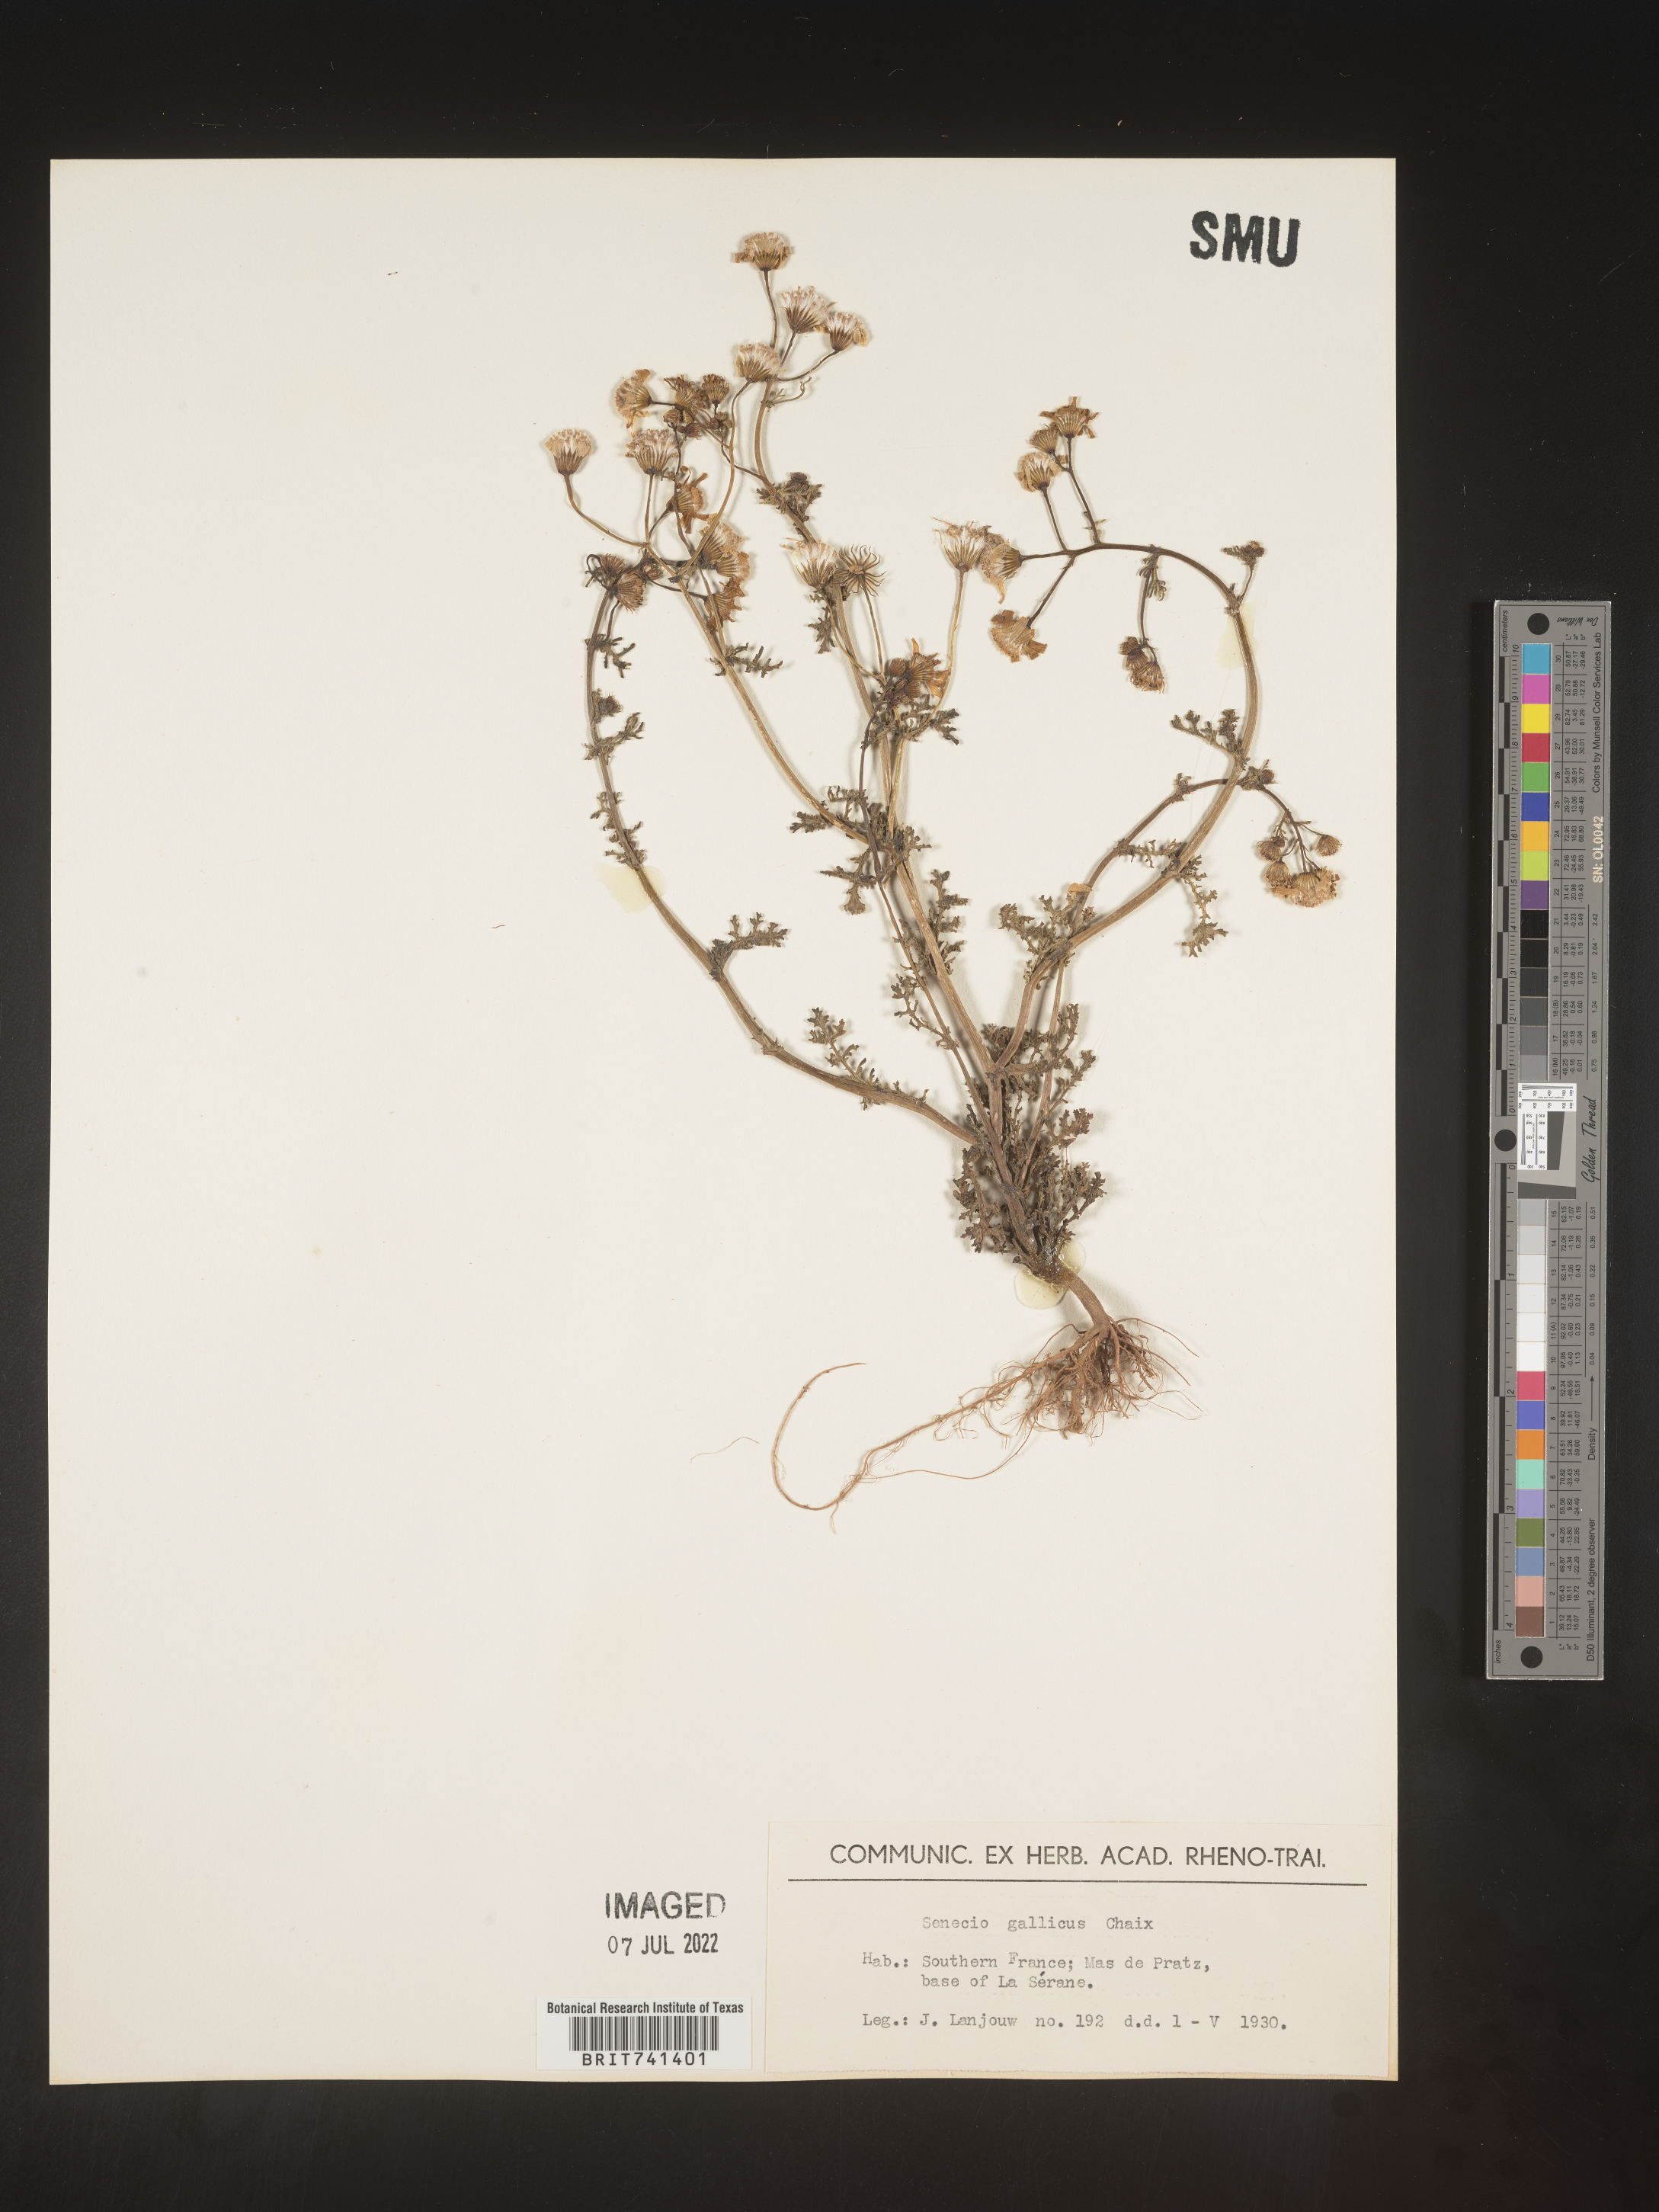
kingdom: Plantae
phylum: Tracheophyta
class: Magnoliopsida
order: Asterales
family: Asteraceae
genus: Senecio
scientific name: Senecio
